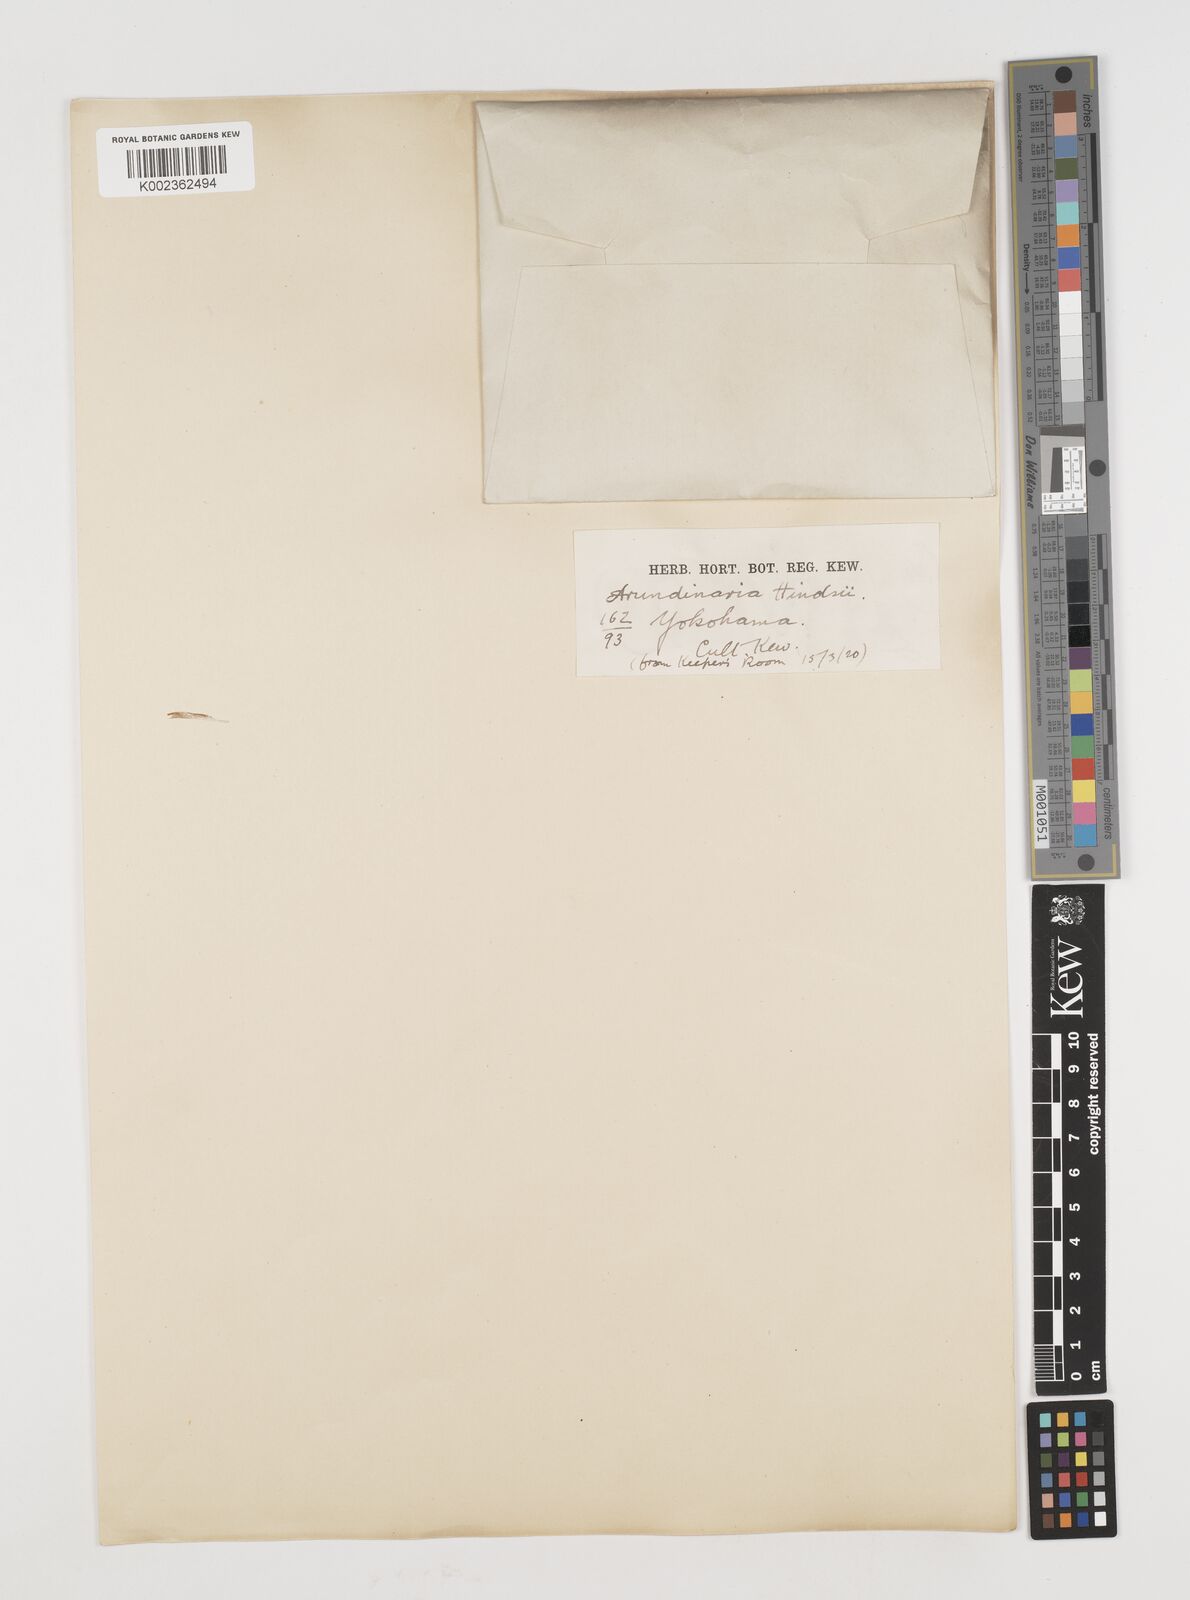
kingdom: Plantae
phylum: Tracheophyta
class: Liliopsida
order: Poales
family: Poaceae
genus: Pseudosasa
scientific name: Pseudosasa hindsii
